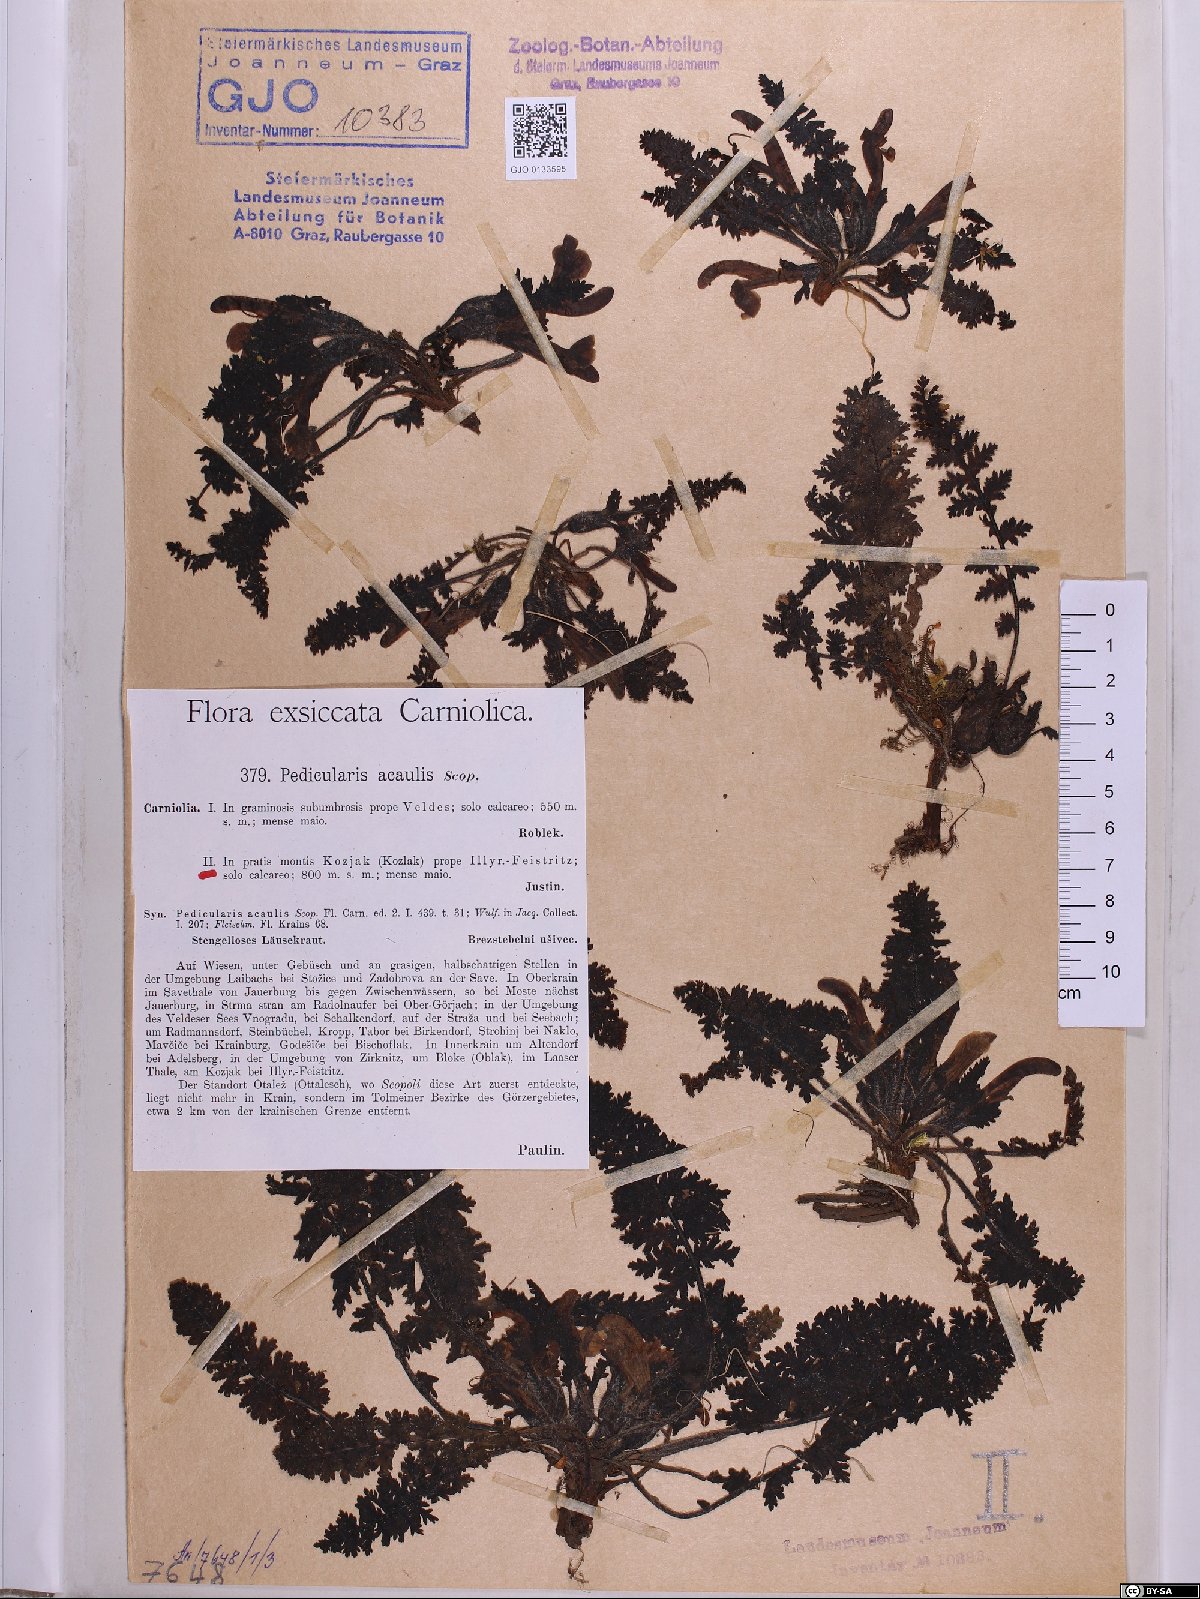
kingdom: Plantae
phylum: Tracheophyta
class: Magnoliopsida
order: Lamiales
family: Orobanchaceae
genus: Pedicularis
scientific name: Pedicularis acaulis
